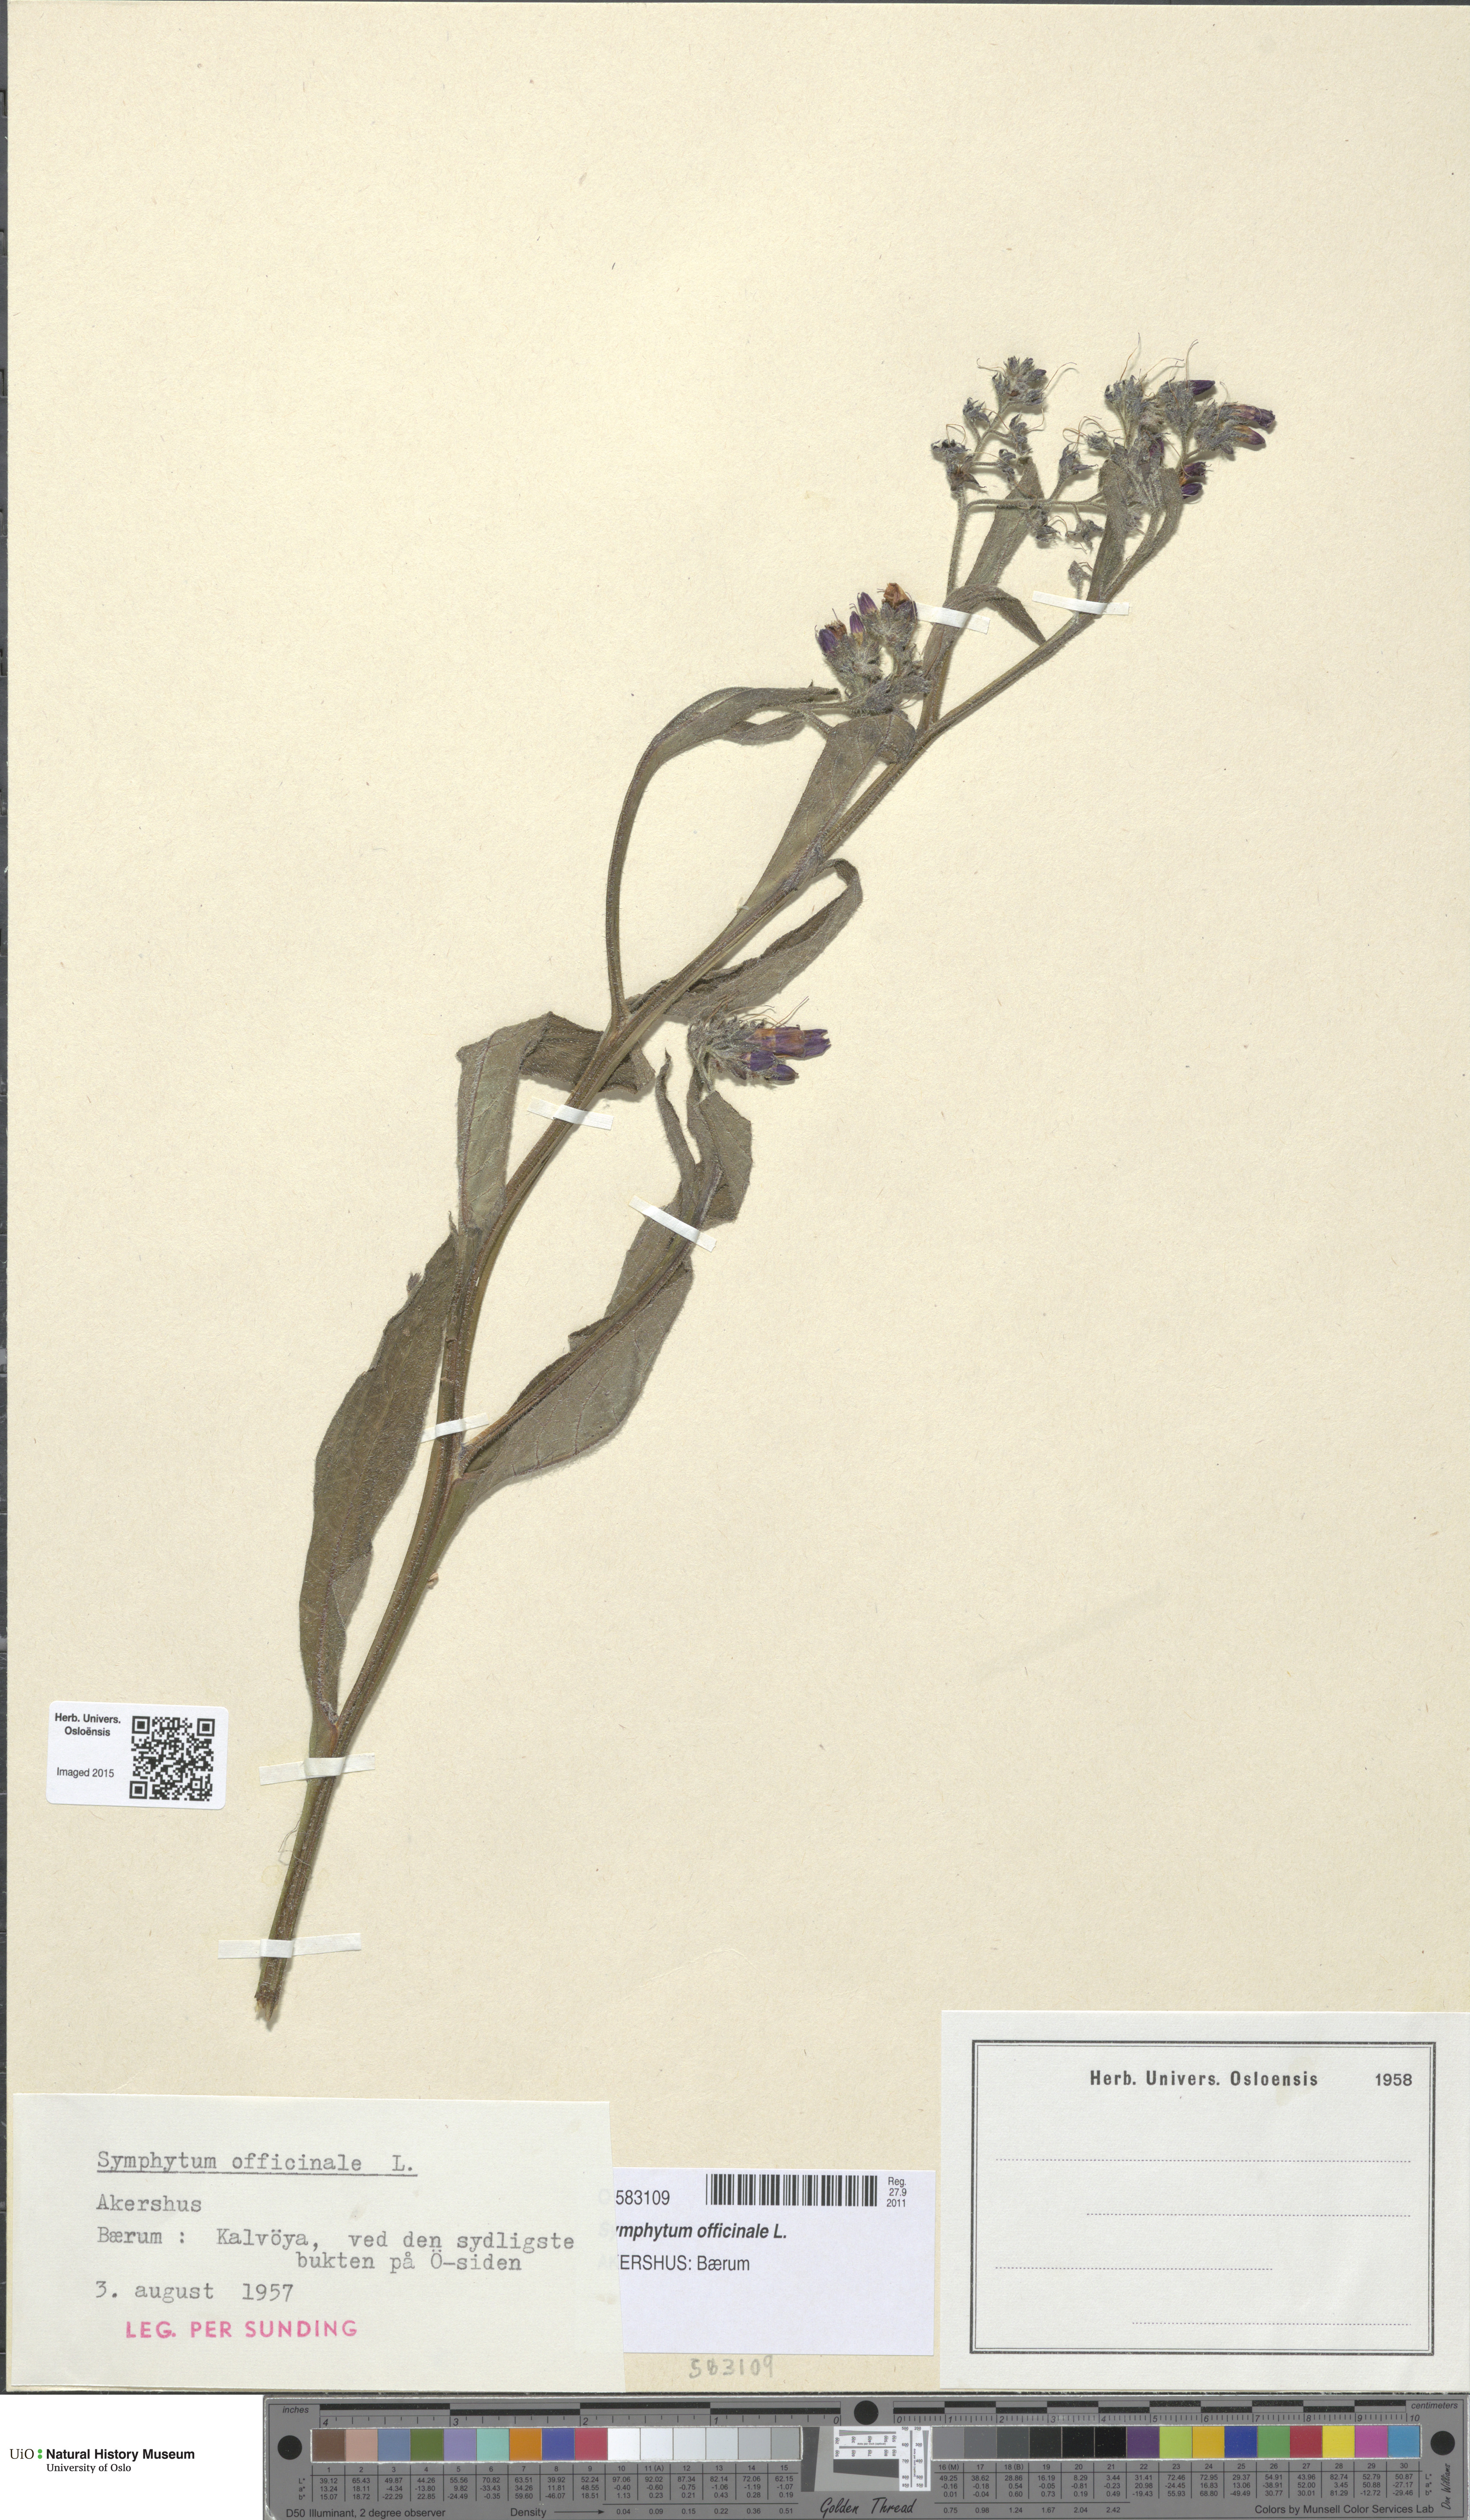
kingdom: Plantae
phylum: Tracheophyta
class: Magnoliopsida
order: Boraginales
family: Boraginaceae
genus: Symphytum
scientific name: Symphytum officinale
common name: Common comfrey
